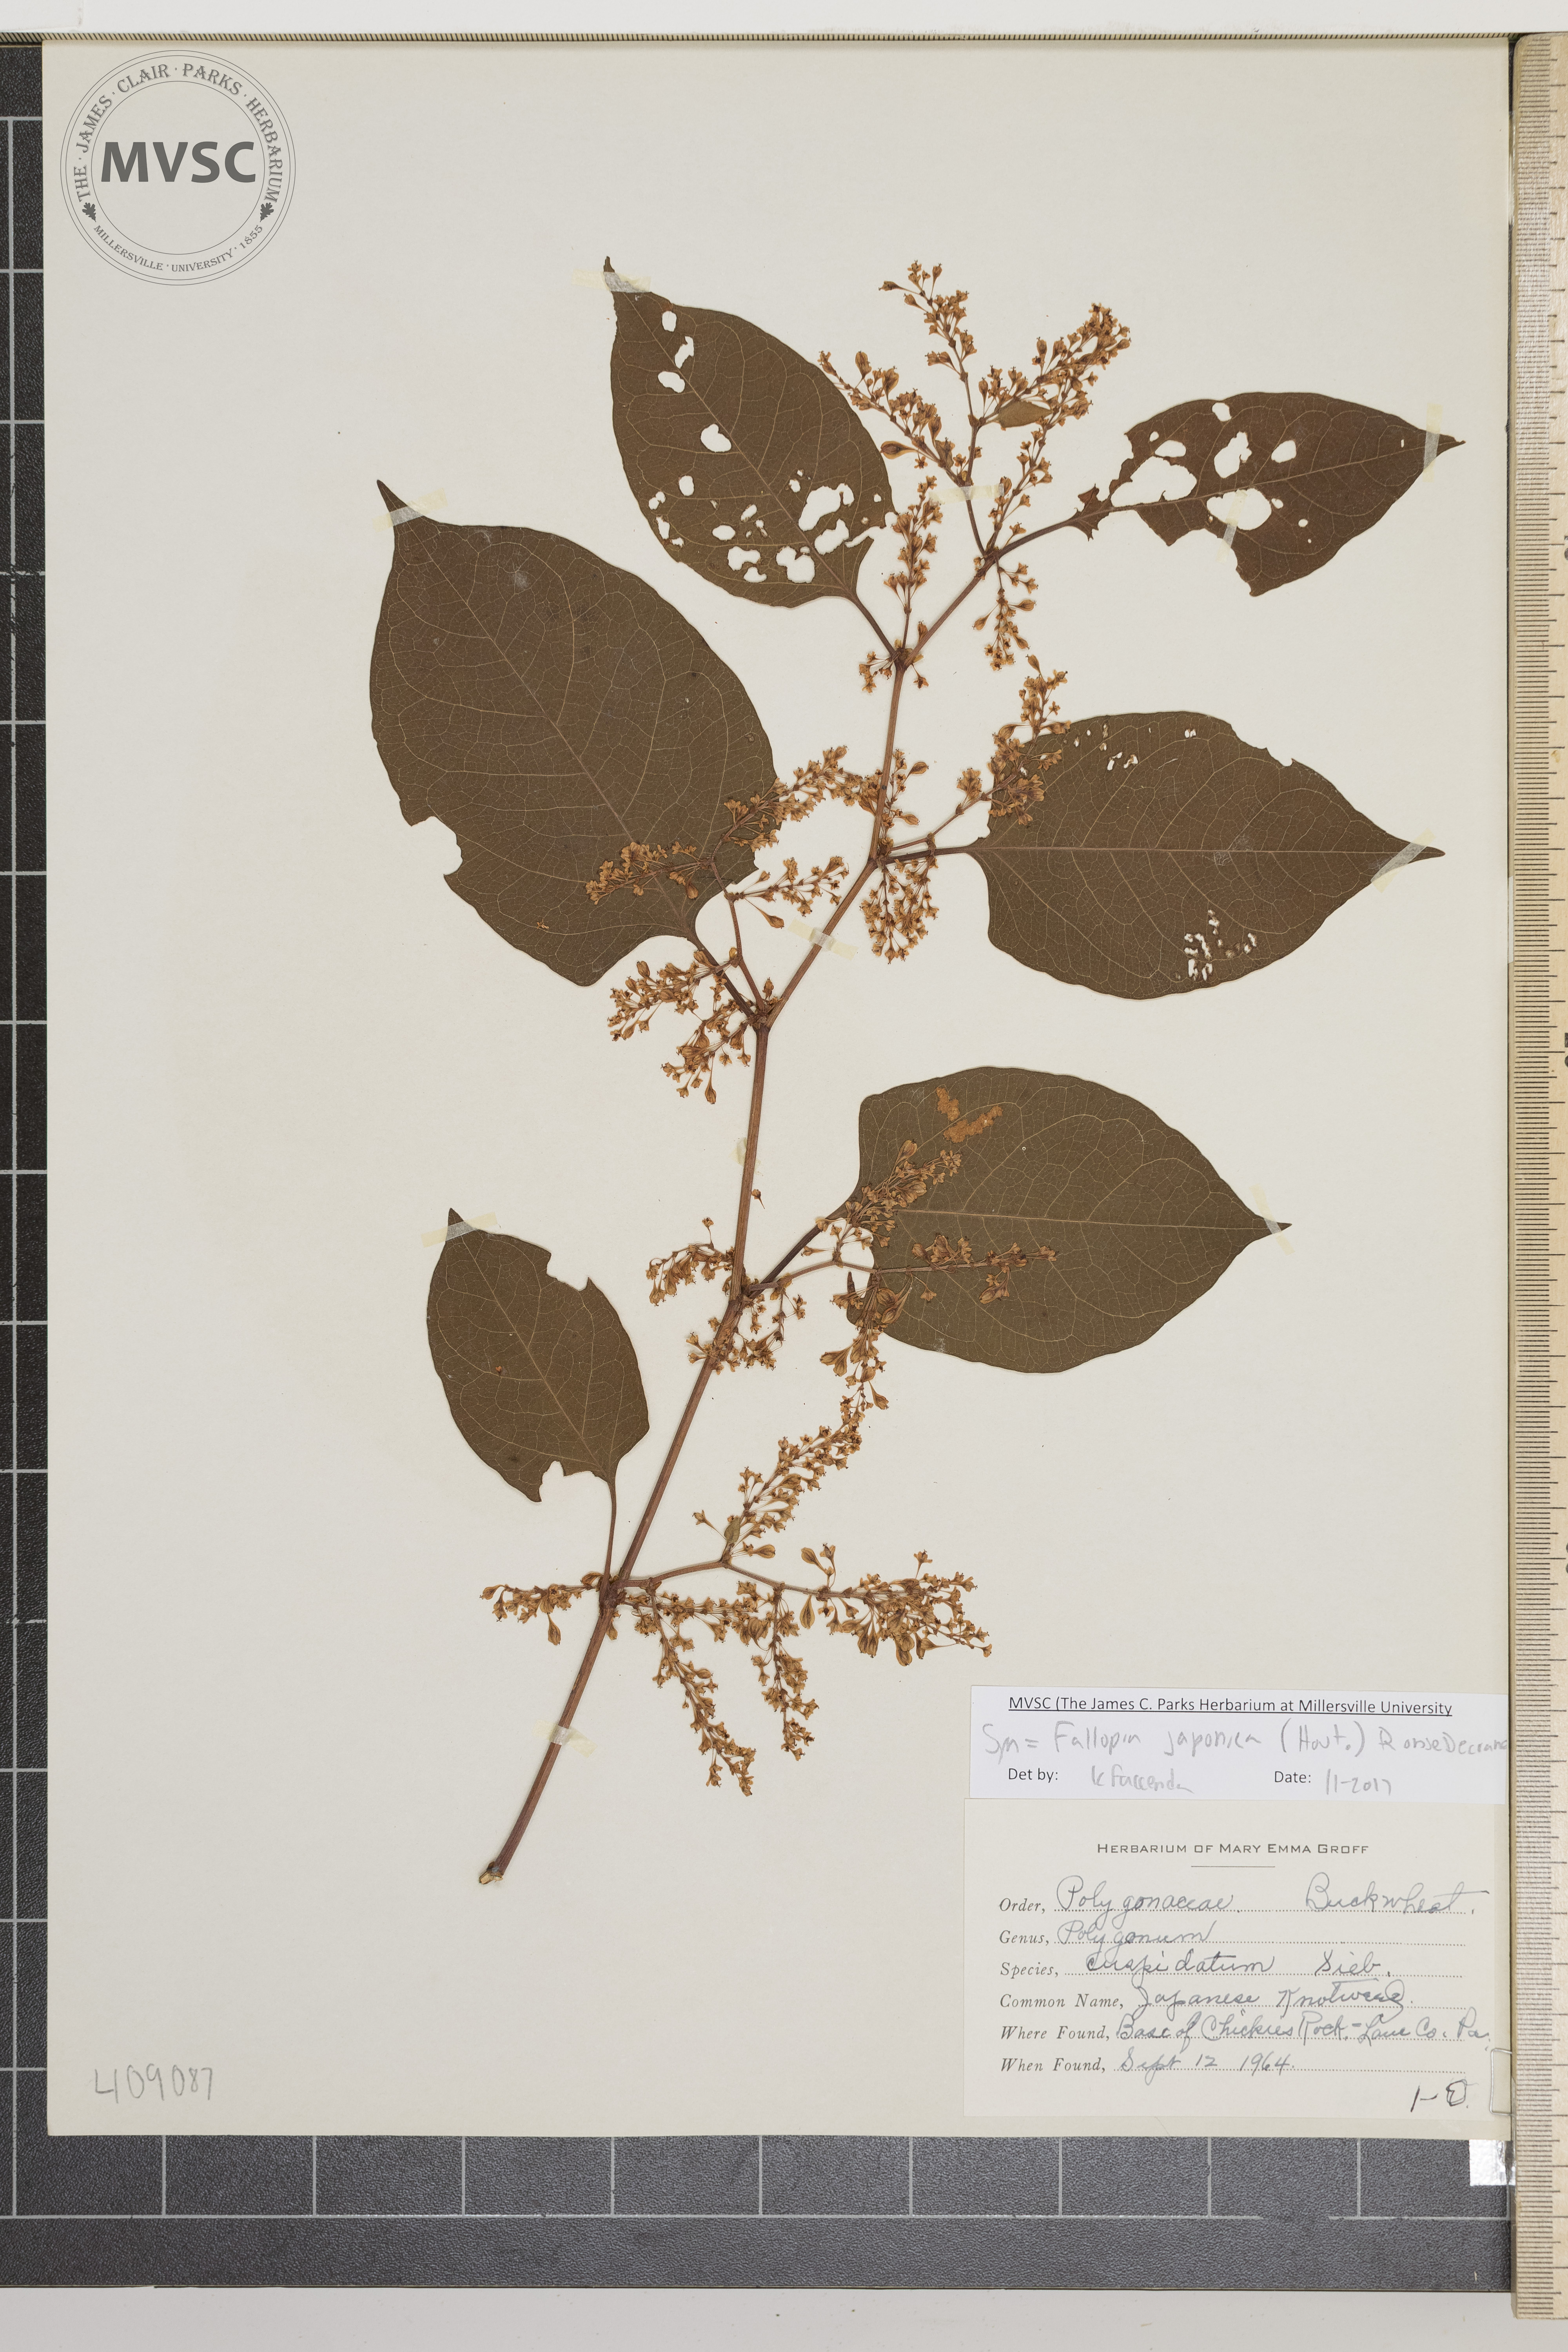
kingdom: Plantae
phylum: Tracheophyta
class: Magnoliopsida
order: Caryophyllales
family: Polygonaceae
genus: Reynoutria
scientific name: Reynoutria japonica
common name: Japanese knotweed
